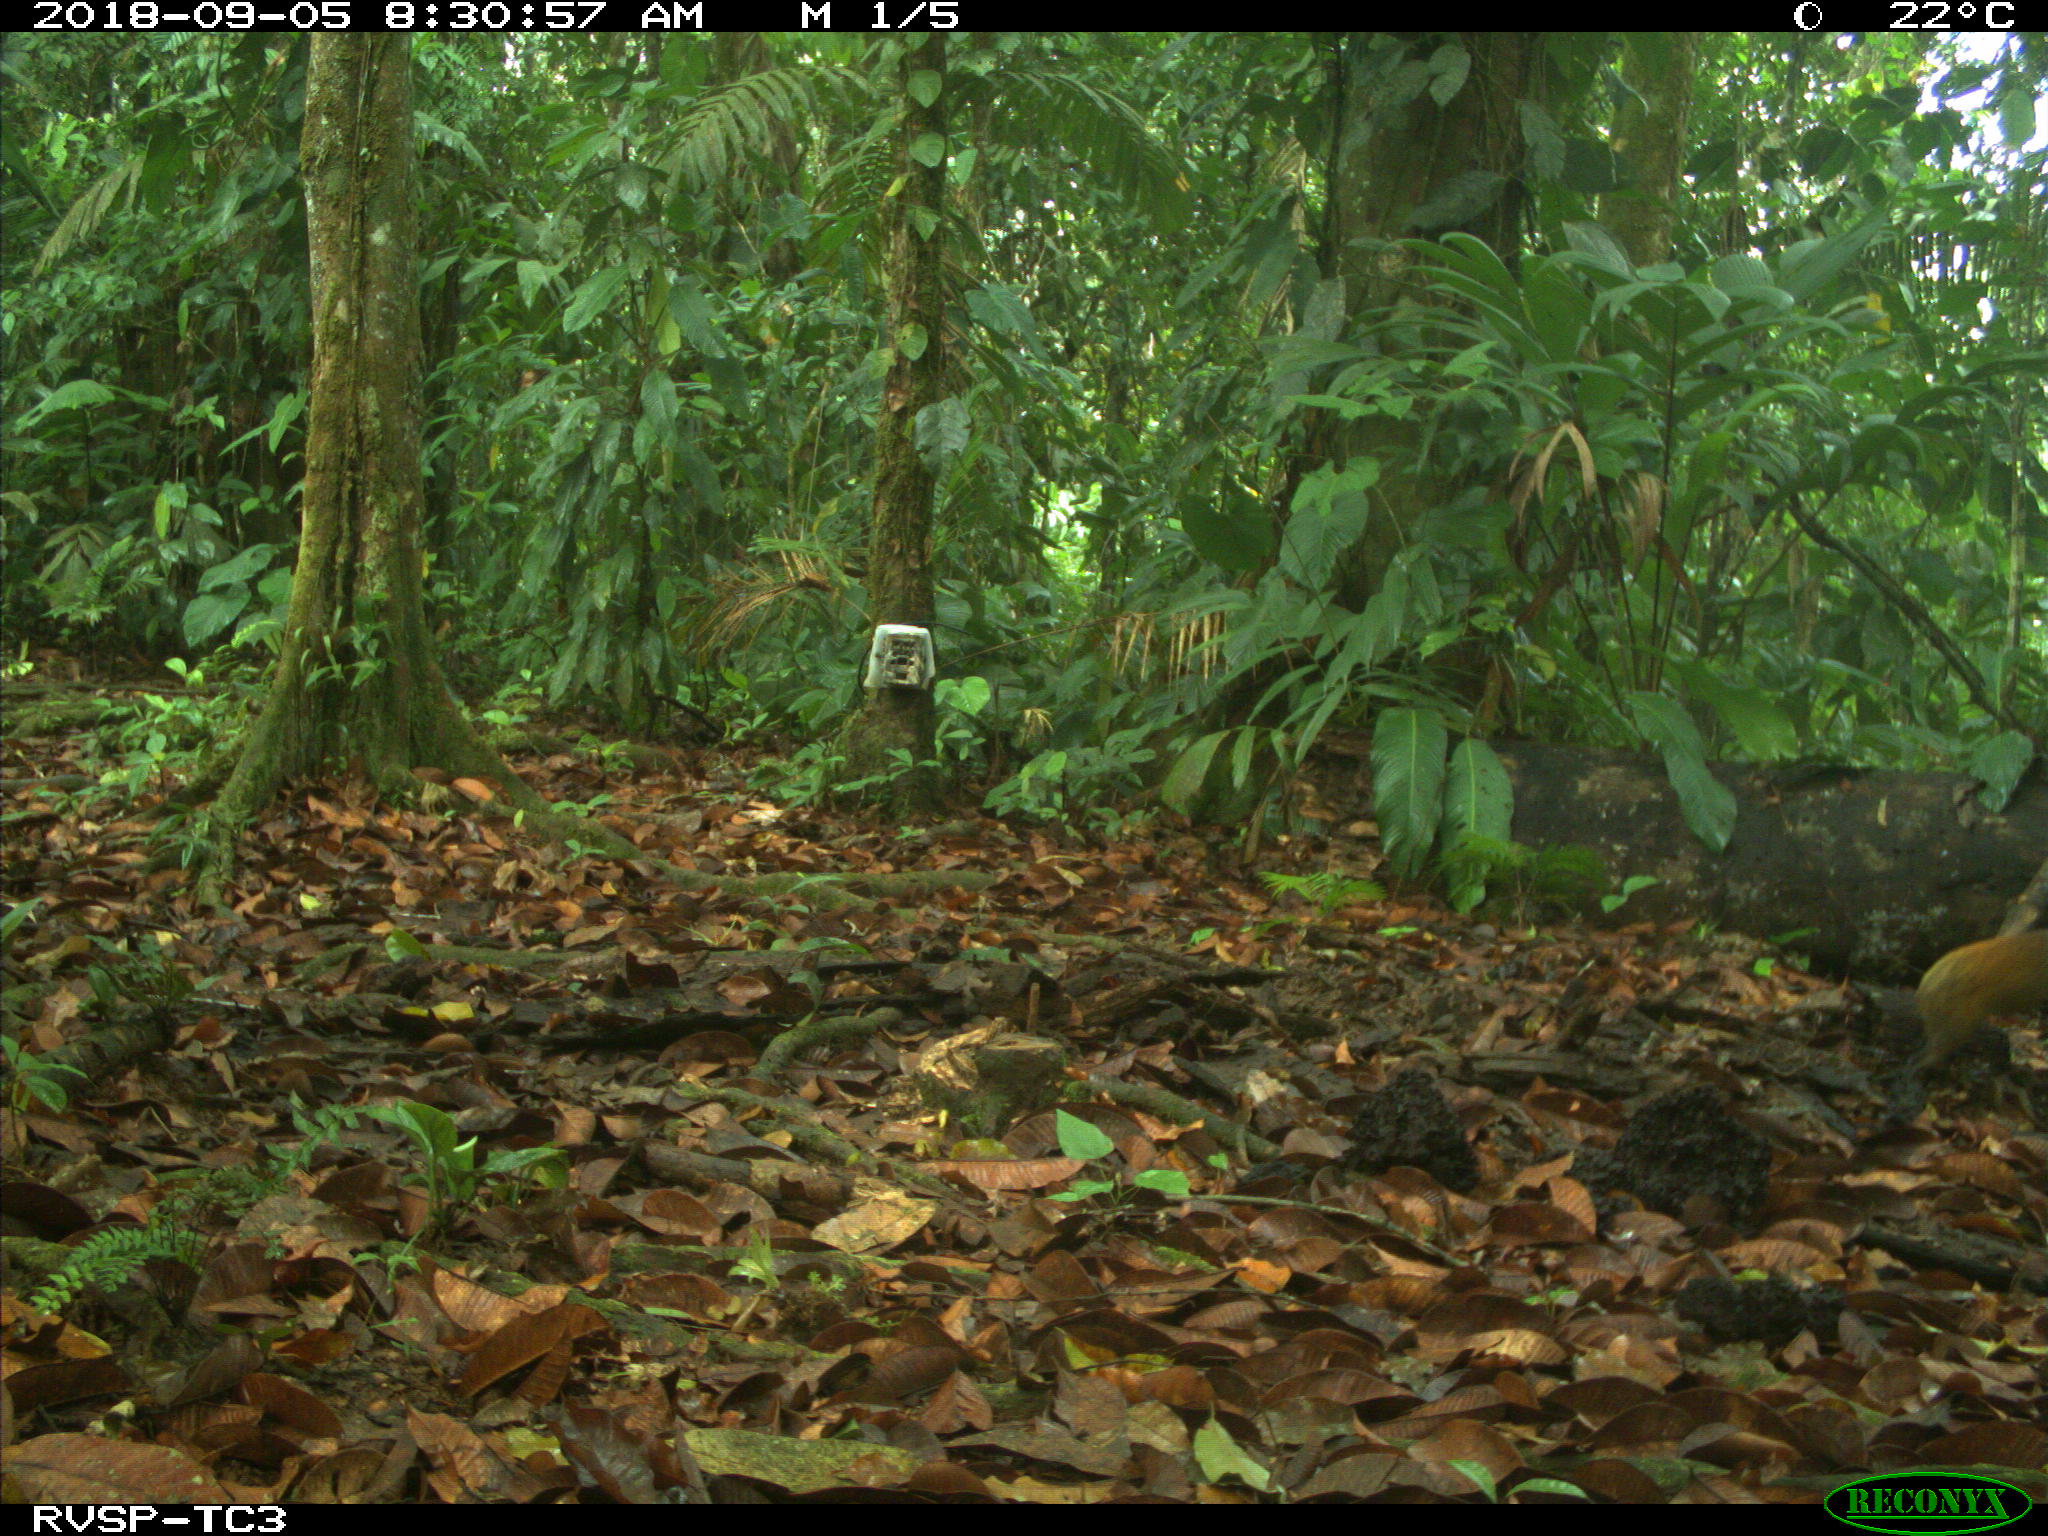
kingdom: Animalia
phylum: Chordata
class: Mammalia
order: Rodentia
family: Dasyproctidae
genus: Dasyprocta
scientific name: Dasyprocta punctata
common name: Central american agouti
